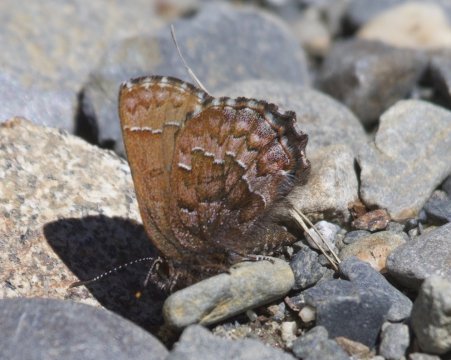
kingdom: Animalia
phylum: Arthropoda
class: Insecta
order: Lepidoptera
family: Lycaenidae
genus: Incisalia
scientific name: Incisalia niphon
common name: Eastern Pine Elfin
